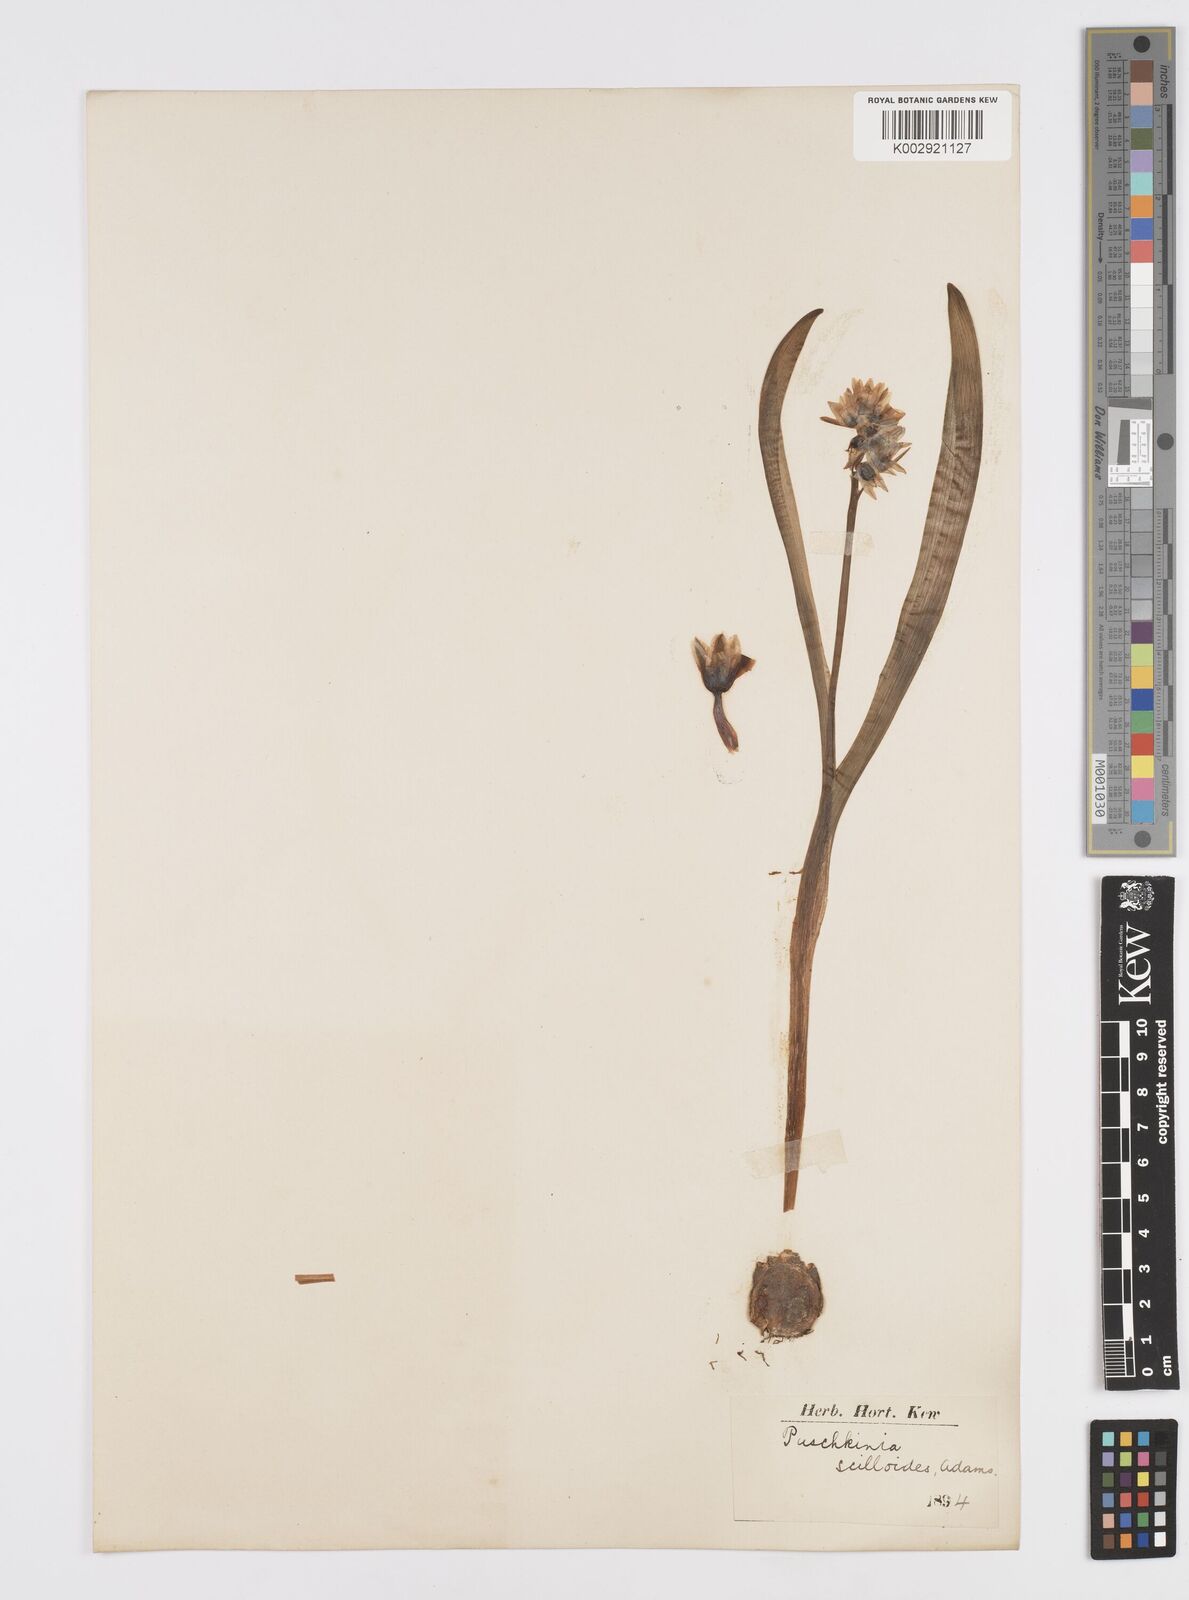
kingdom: Plantae
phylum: Tracheophyta
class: Liliopsida
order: Asparagales
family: Asparagaceae
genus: Puschkinia
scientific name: Puschkinia scilloides
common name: Striped squill
